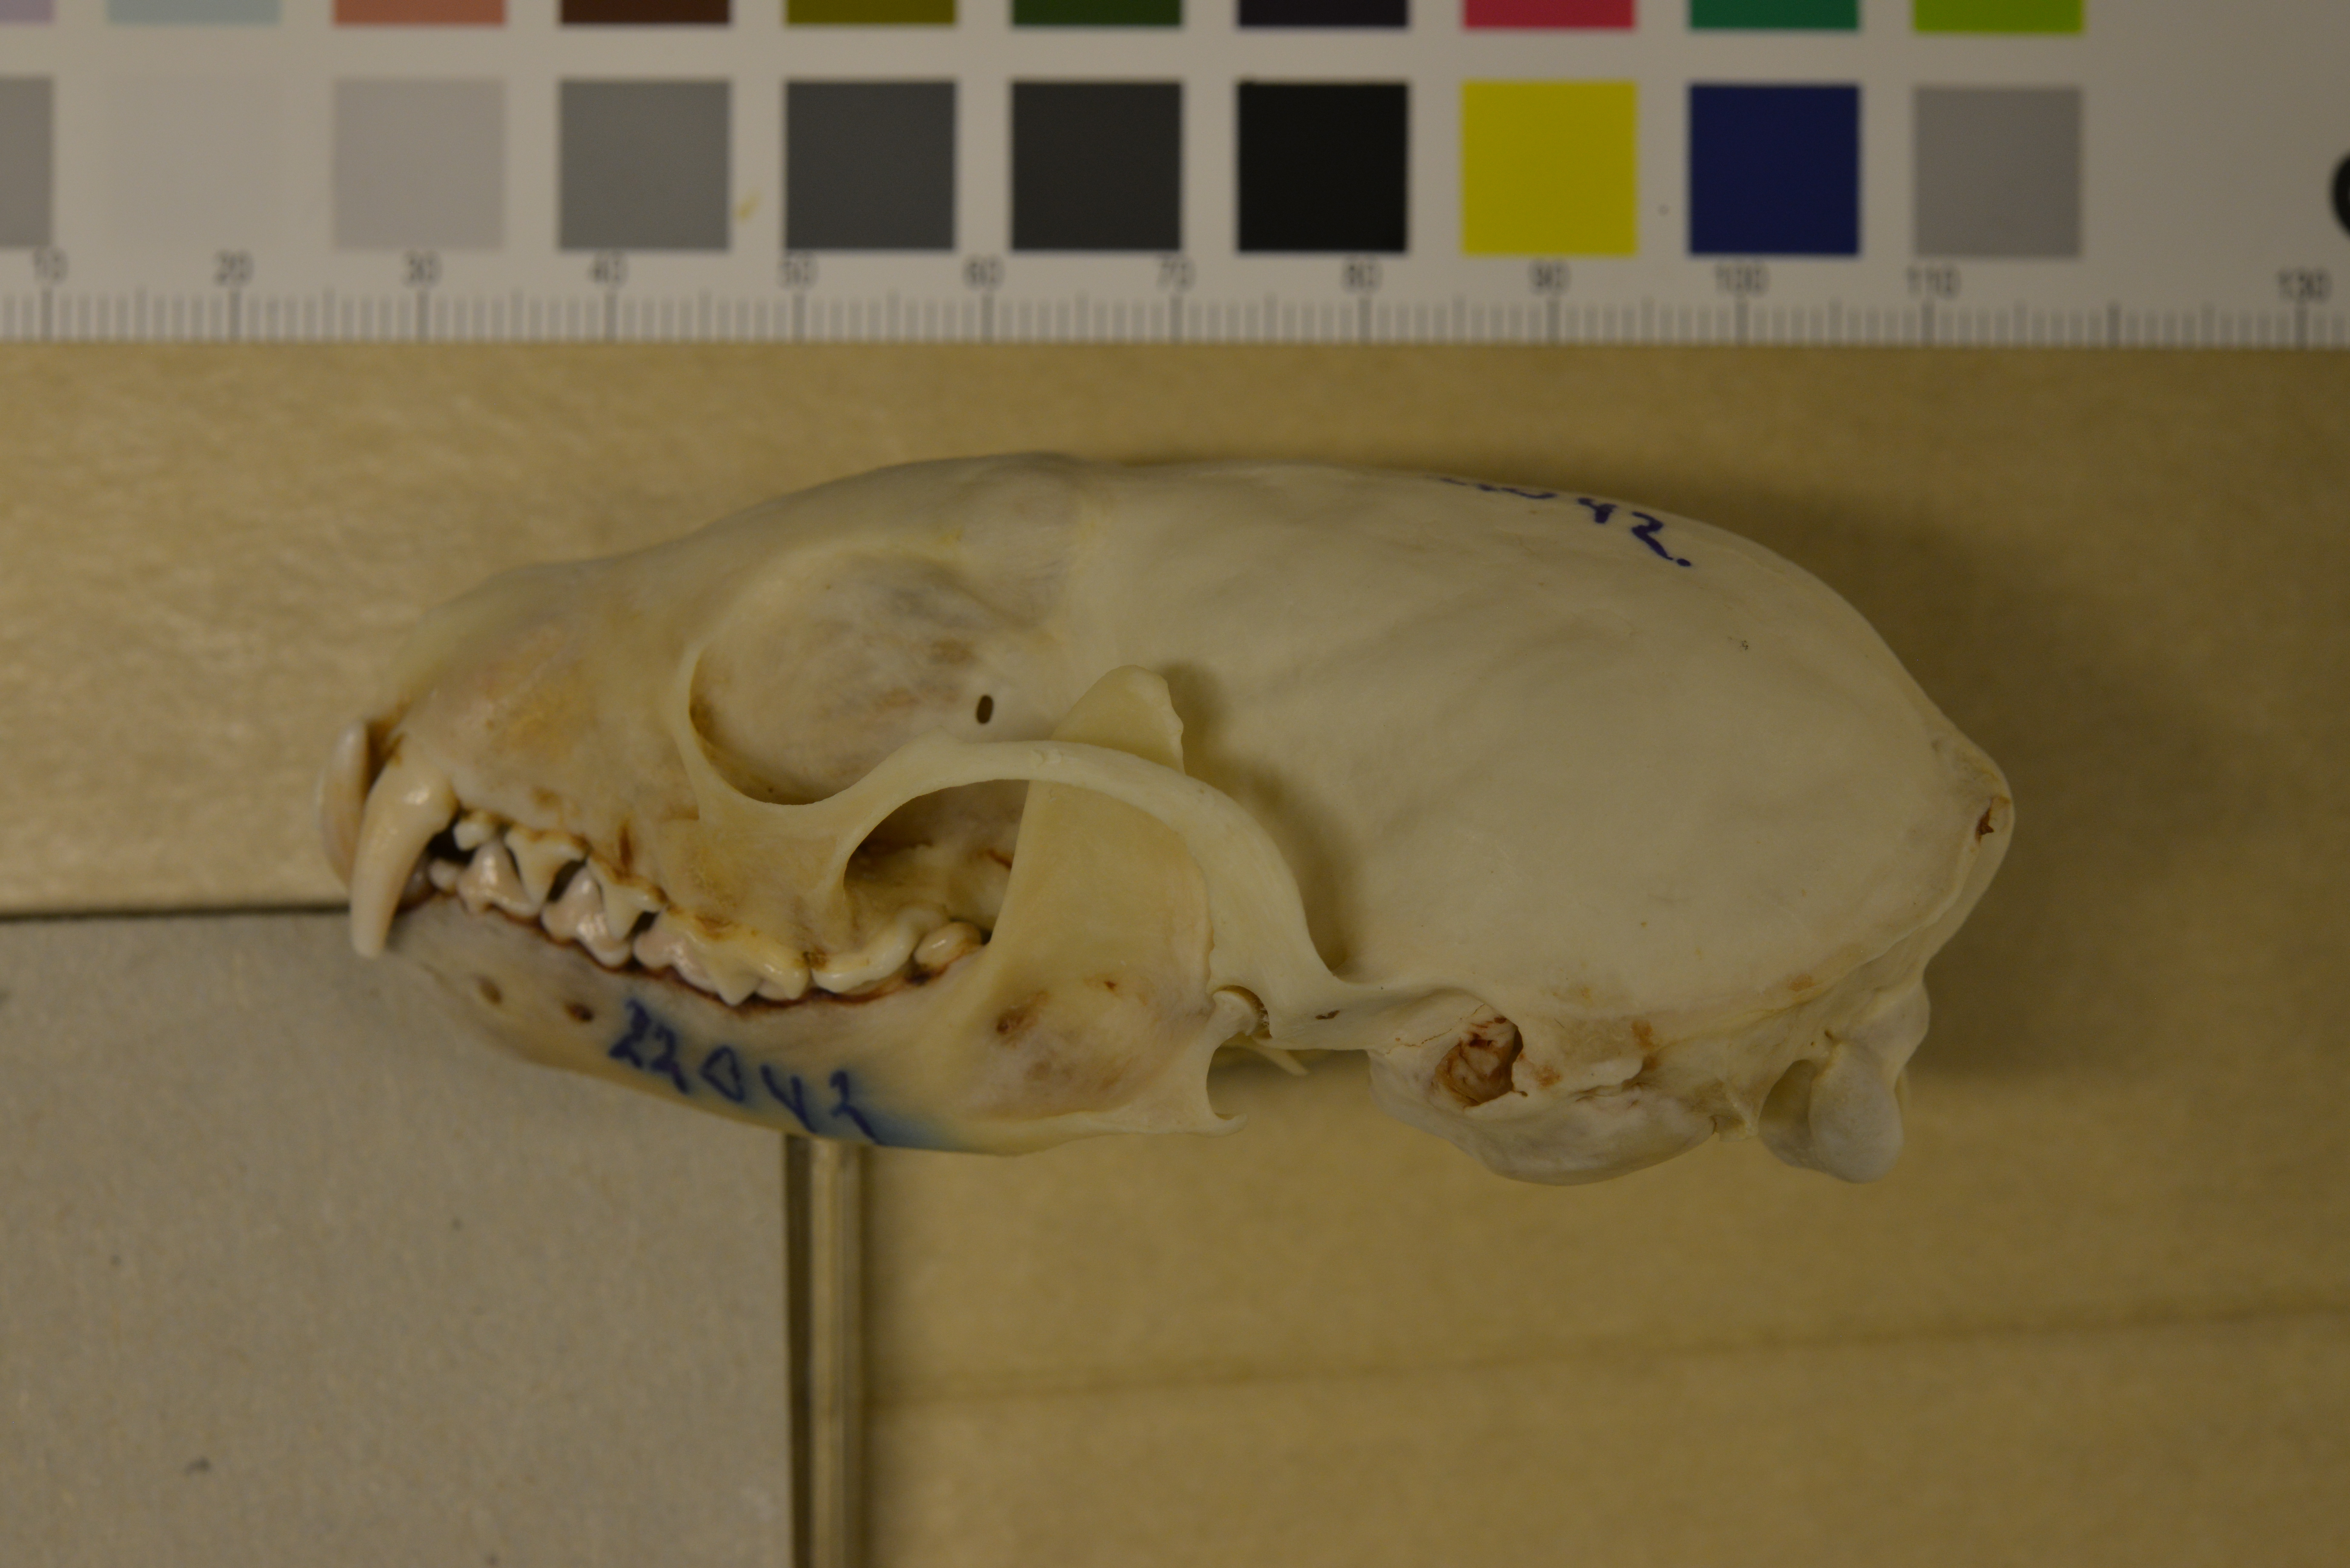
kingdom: Animalia
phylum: Chordata
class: Mammalia
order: Carnivora
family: Mustelidae
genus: Martes
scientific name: Martes martes
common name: European pine marten
